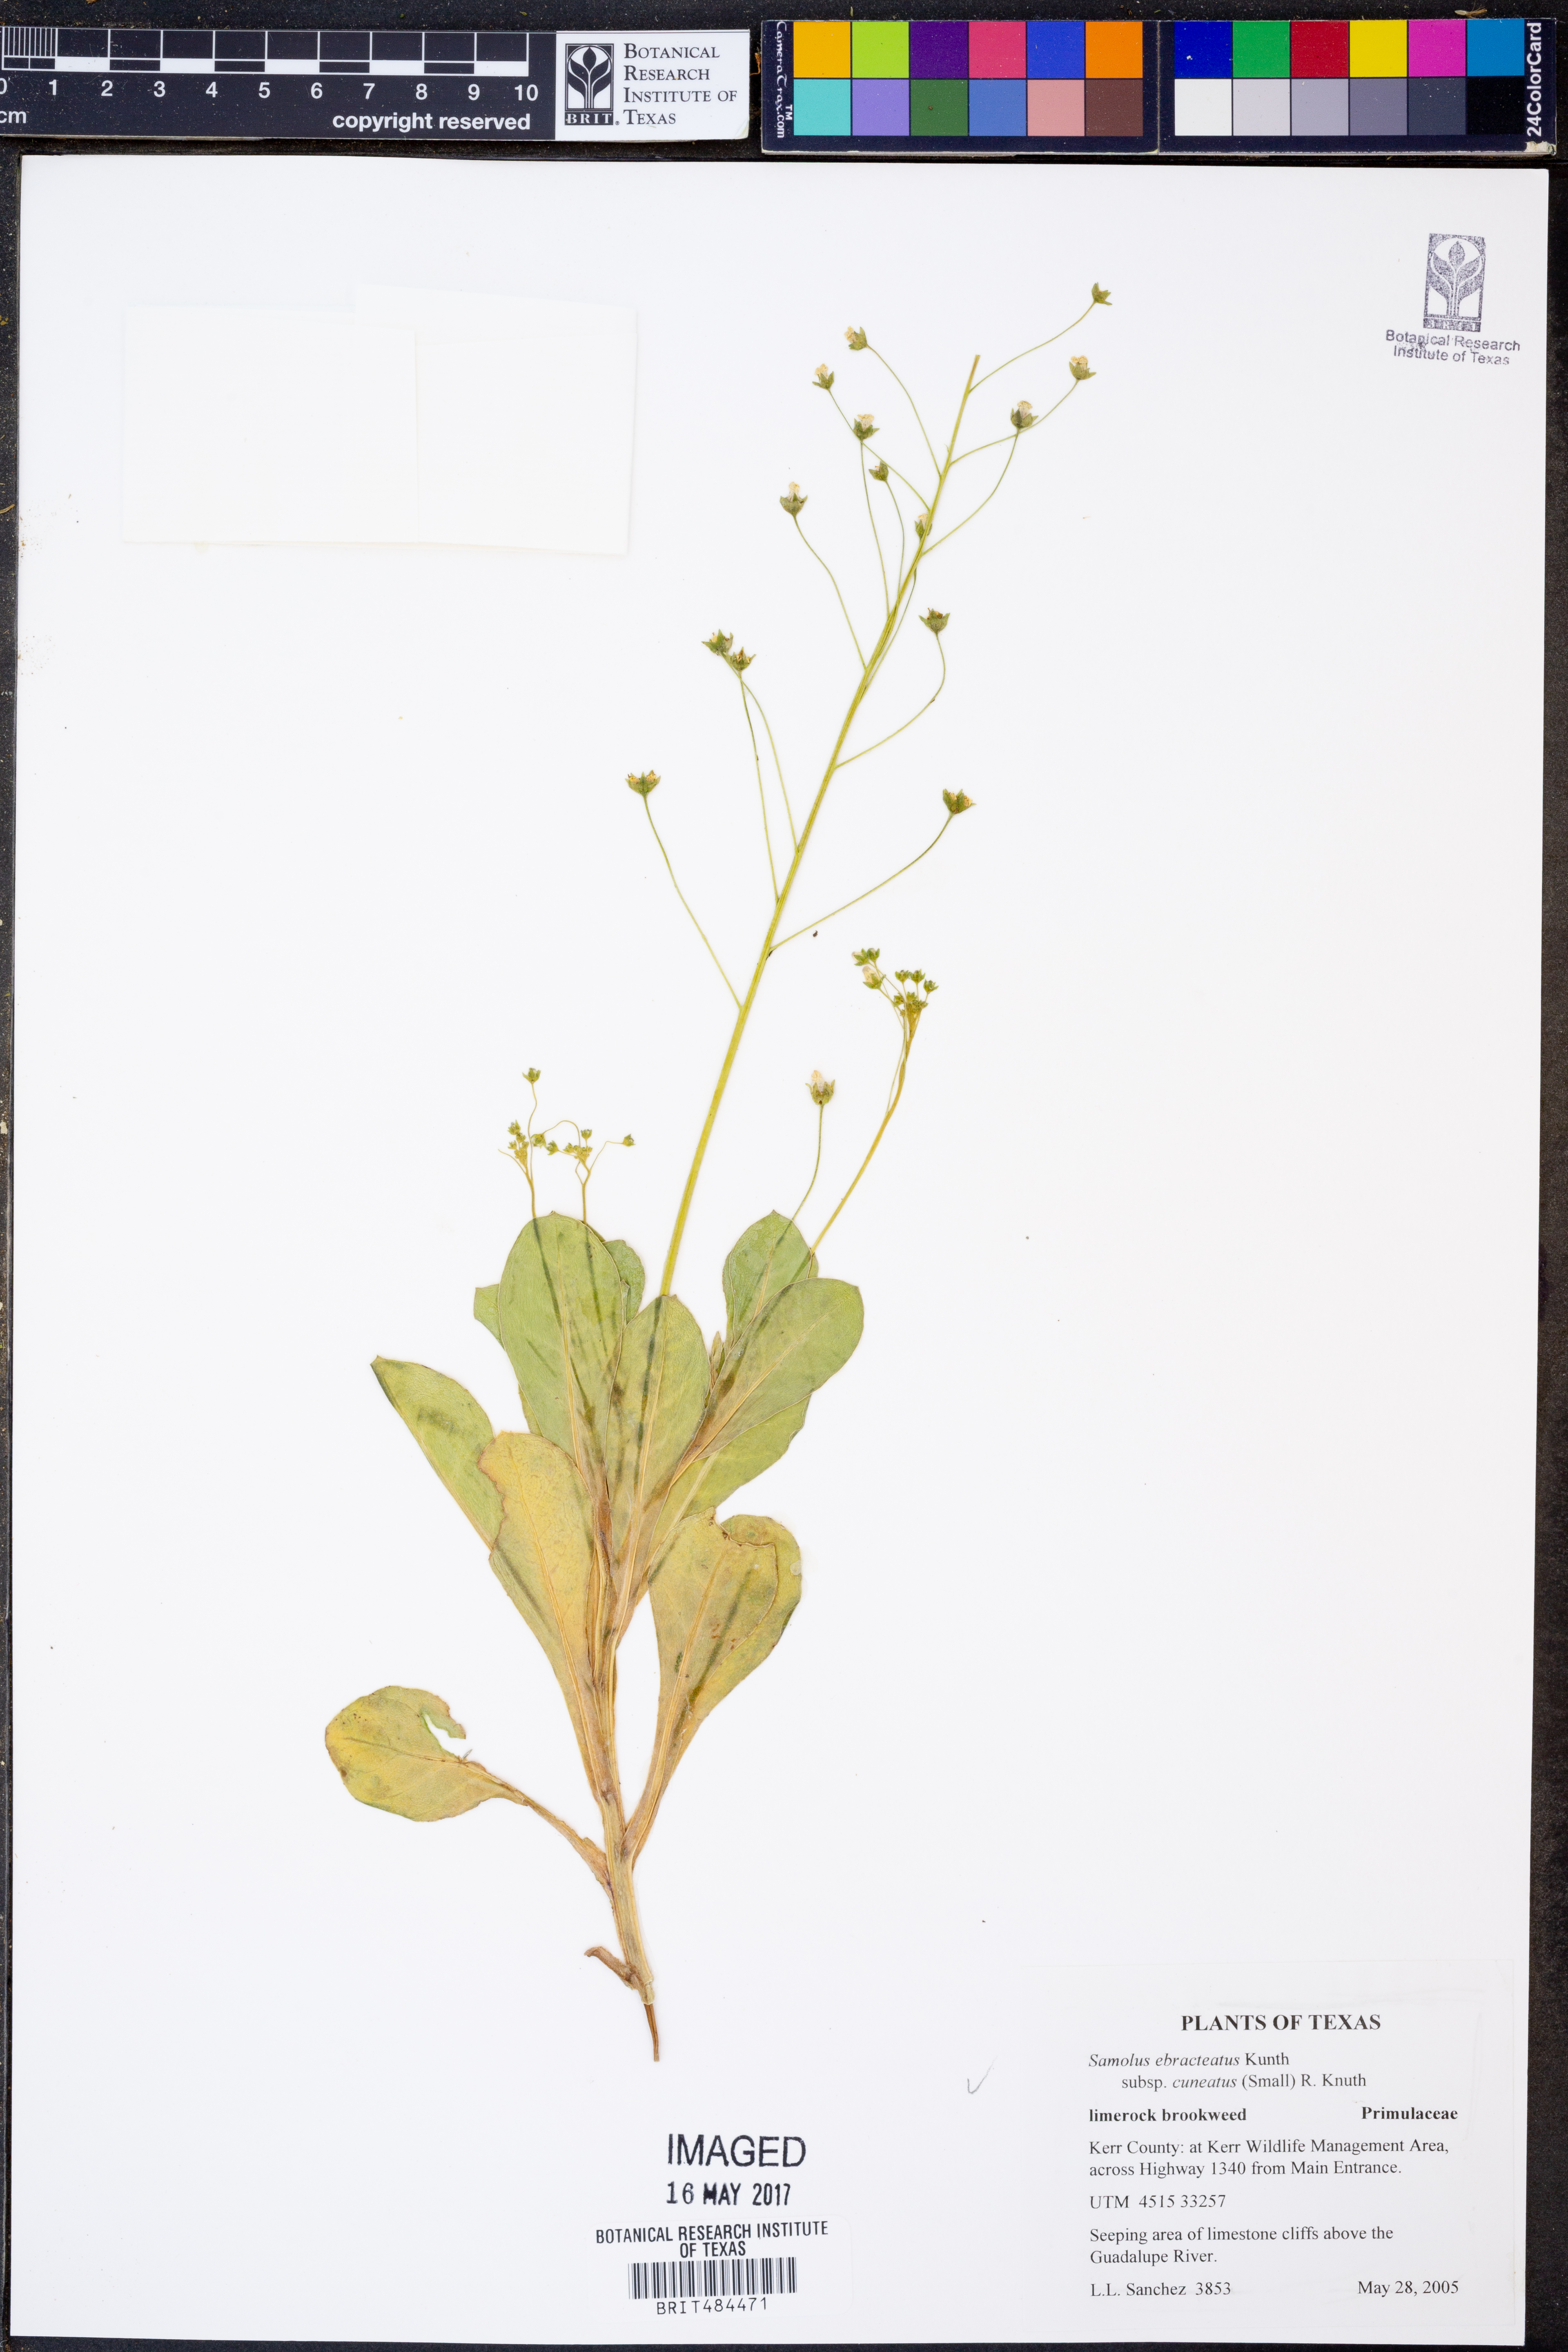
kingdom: Plantae
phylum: Tracheophyta
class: Magnoliopsida
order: Ericales
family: Primulaceae
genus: Samolus
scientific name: Samolus ebracteatus
